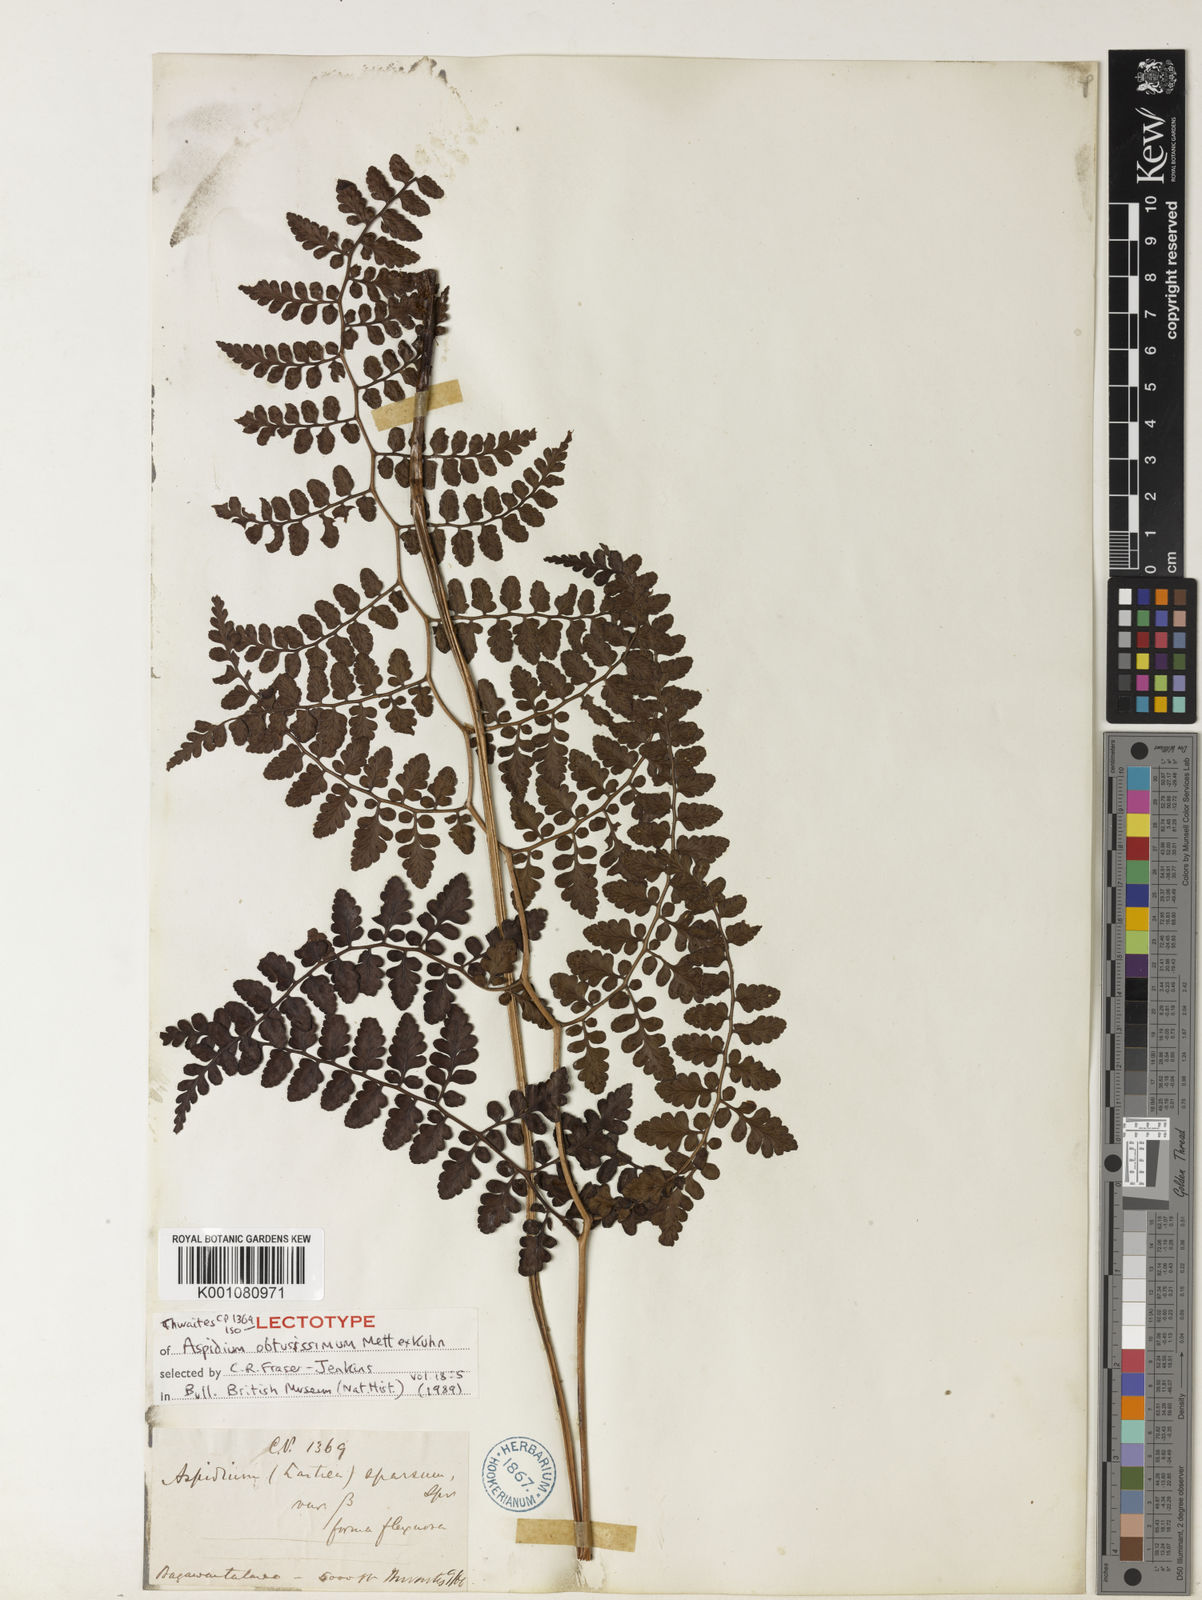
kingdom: Plantae
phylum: Tracheophyta
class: Polypodiopsida
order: Polypodiales
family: Dryopteridaceae
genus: Dryopteris
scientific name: Dryopteris
